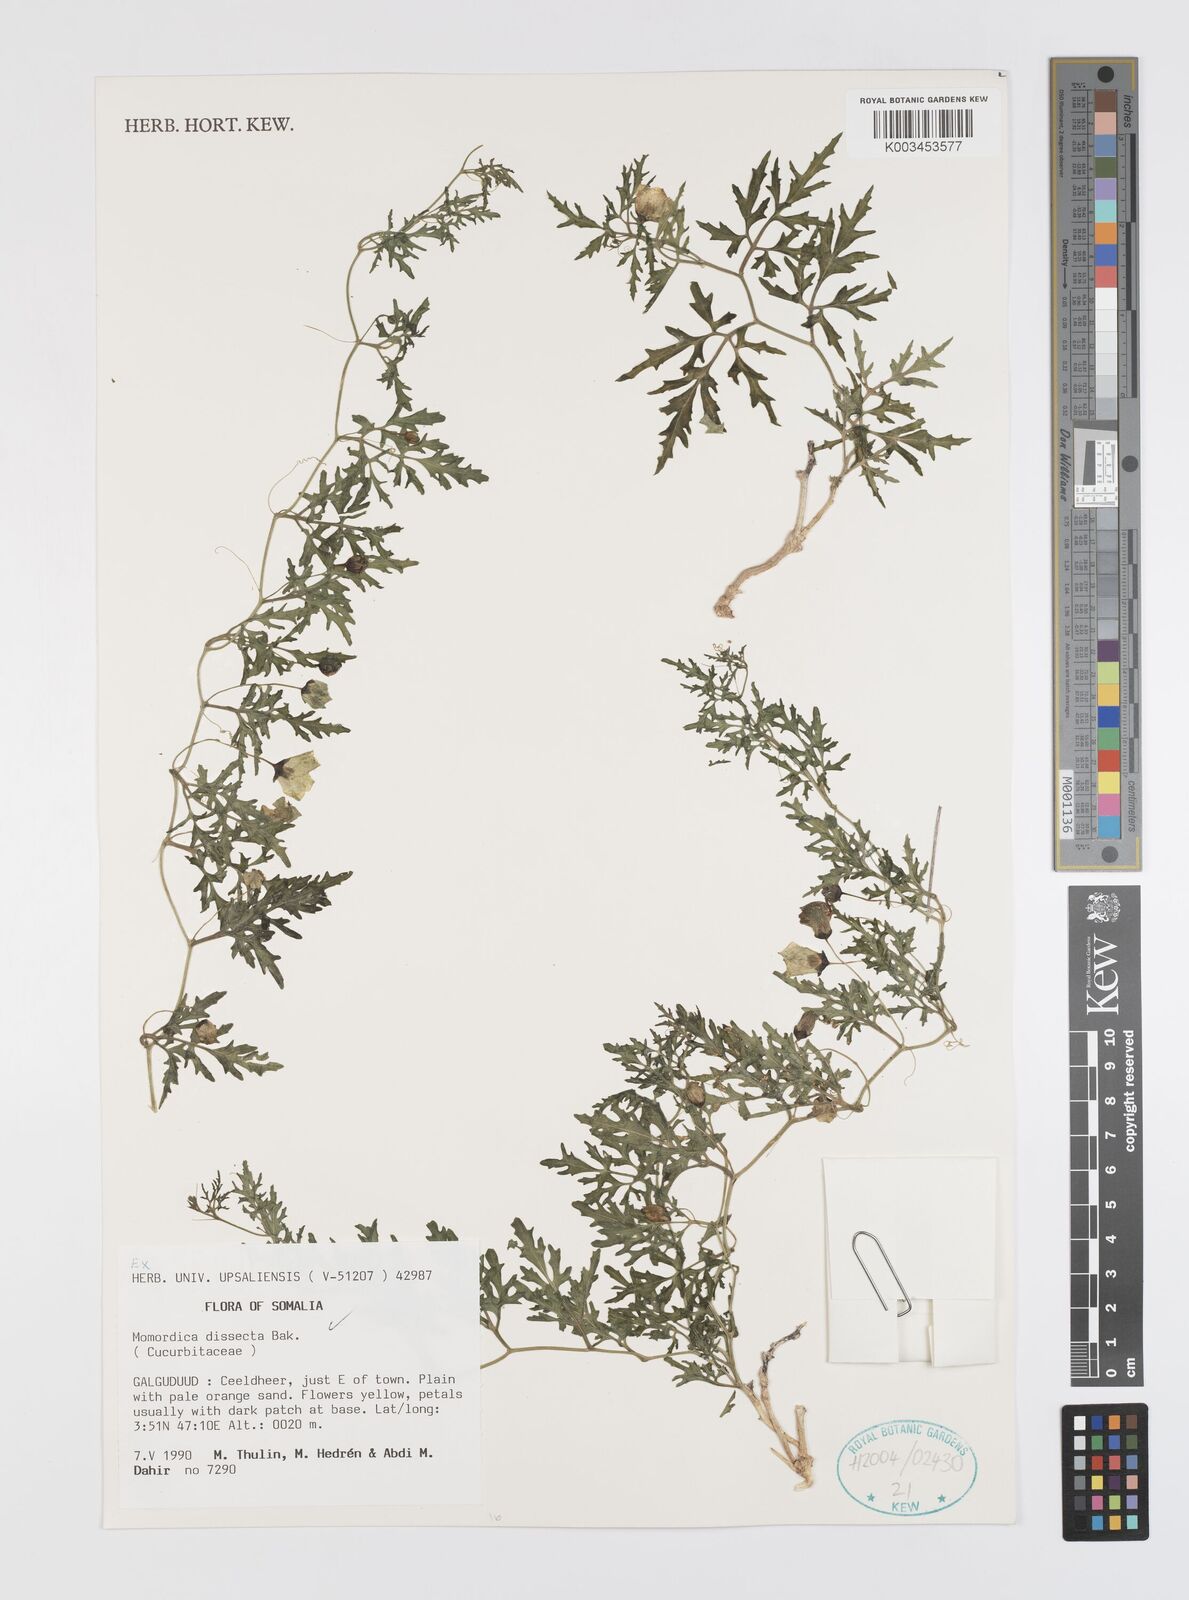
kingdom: Plantae
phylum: Tracheophyta
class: Magnoliopsida
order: Cucurbitales
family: Cucurbitaceae
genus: Momordica
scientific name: Momordica dissecta
